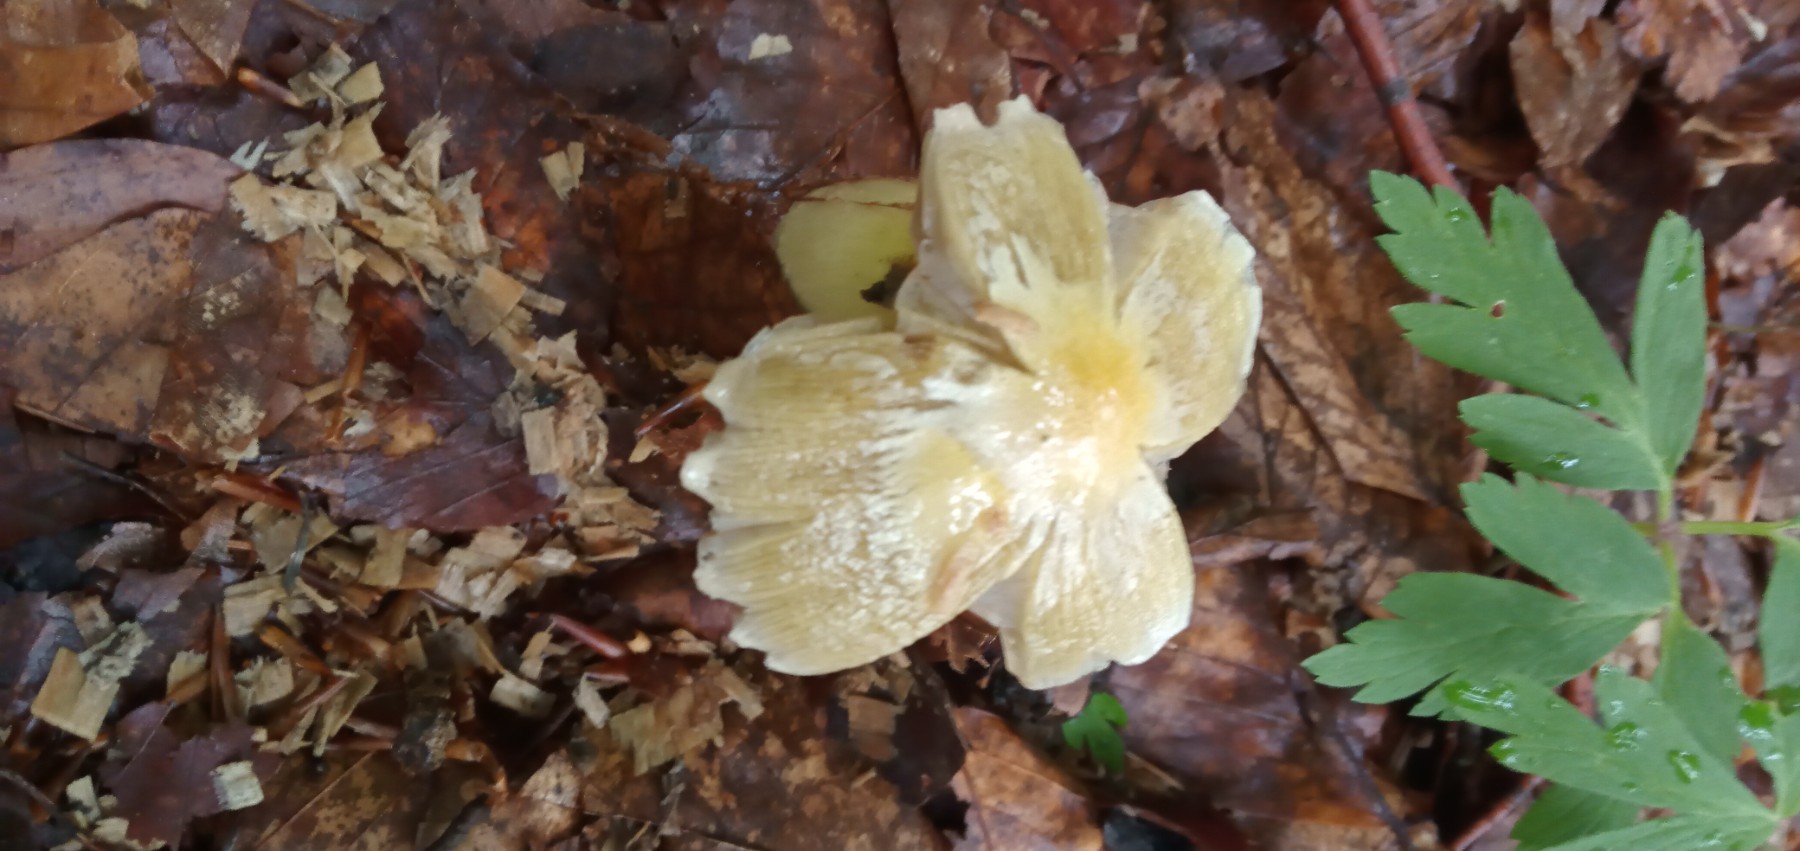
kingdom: Fungi
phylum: Basidiomycota
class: Agaricomycetes
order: Agaricales
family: Bolbitiaceae
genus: Bolbitius
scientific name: Bolbitius titubans
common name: almindelig gulhat
